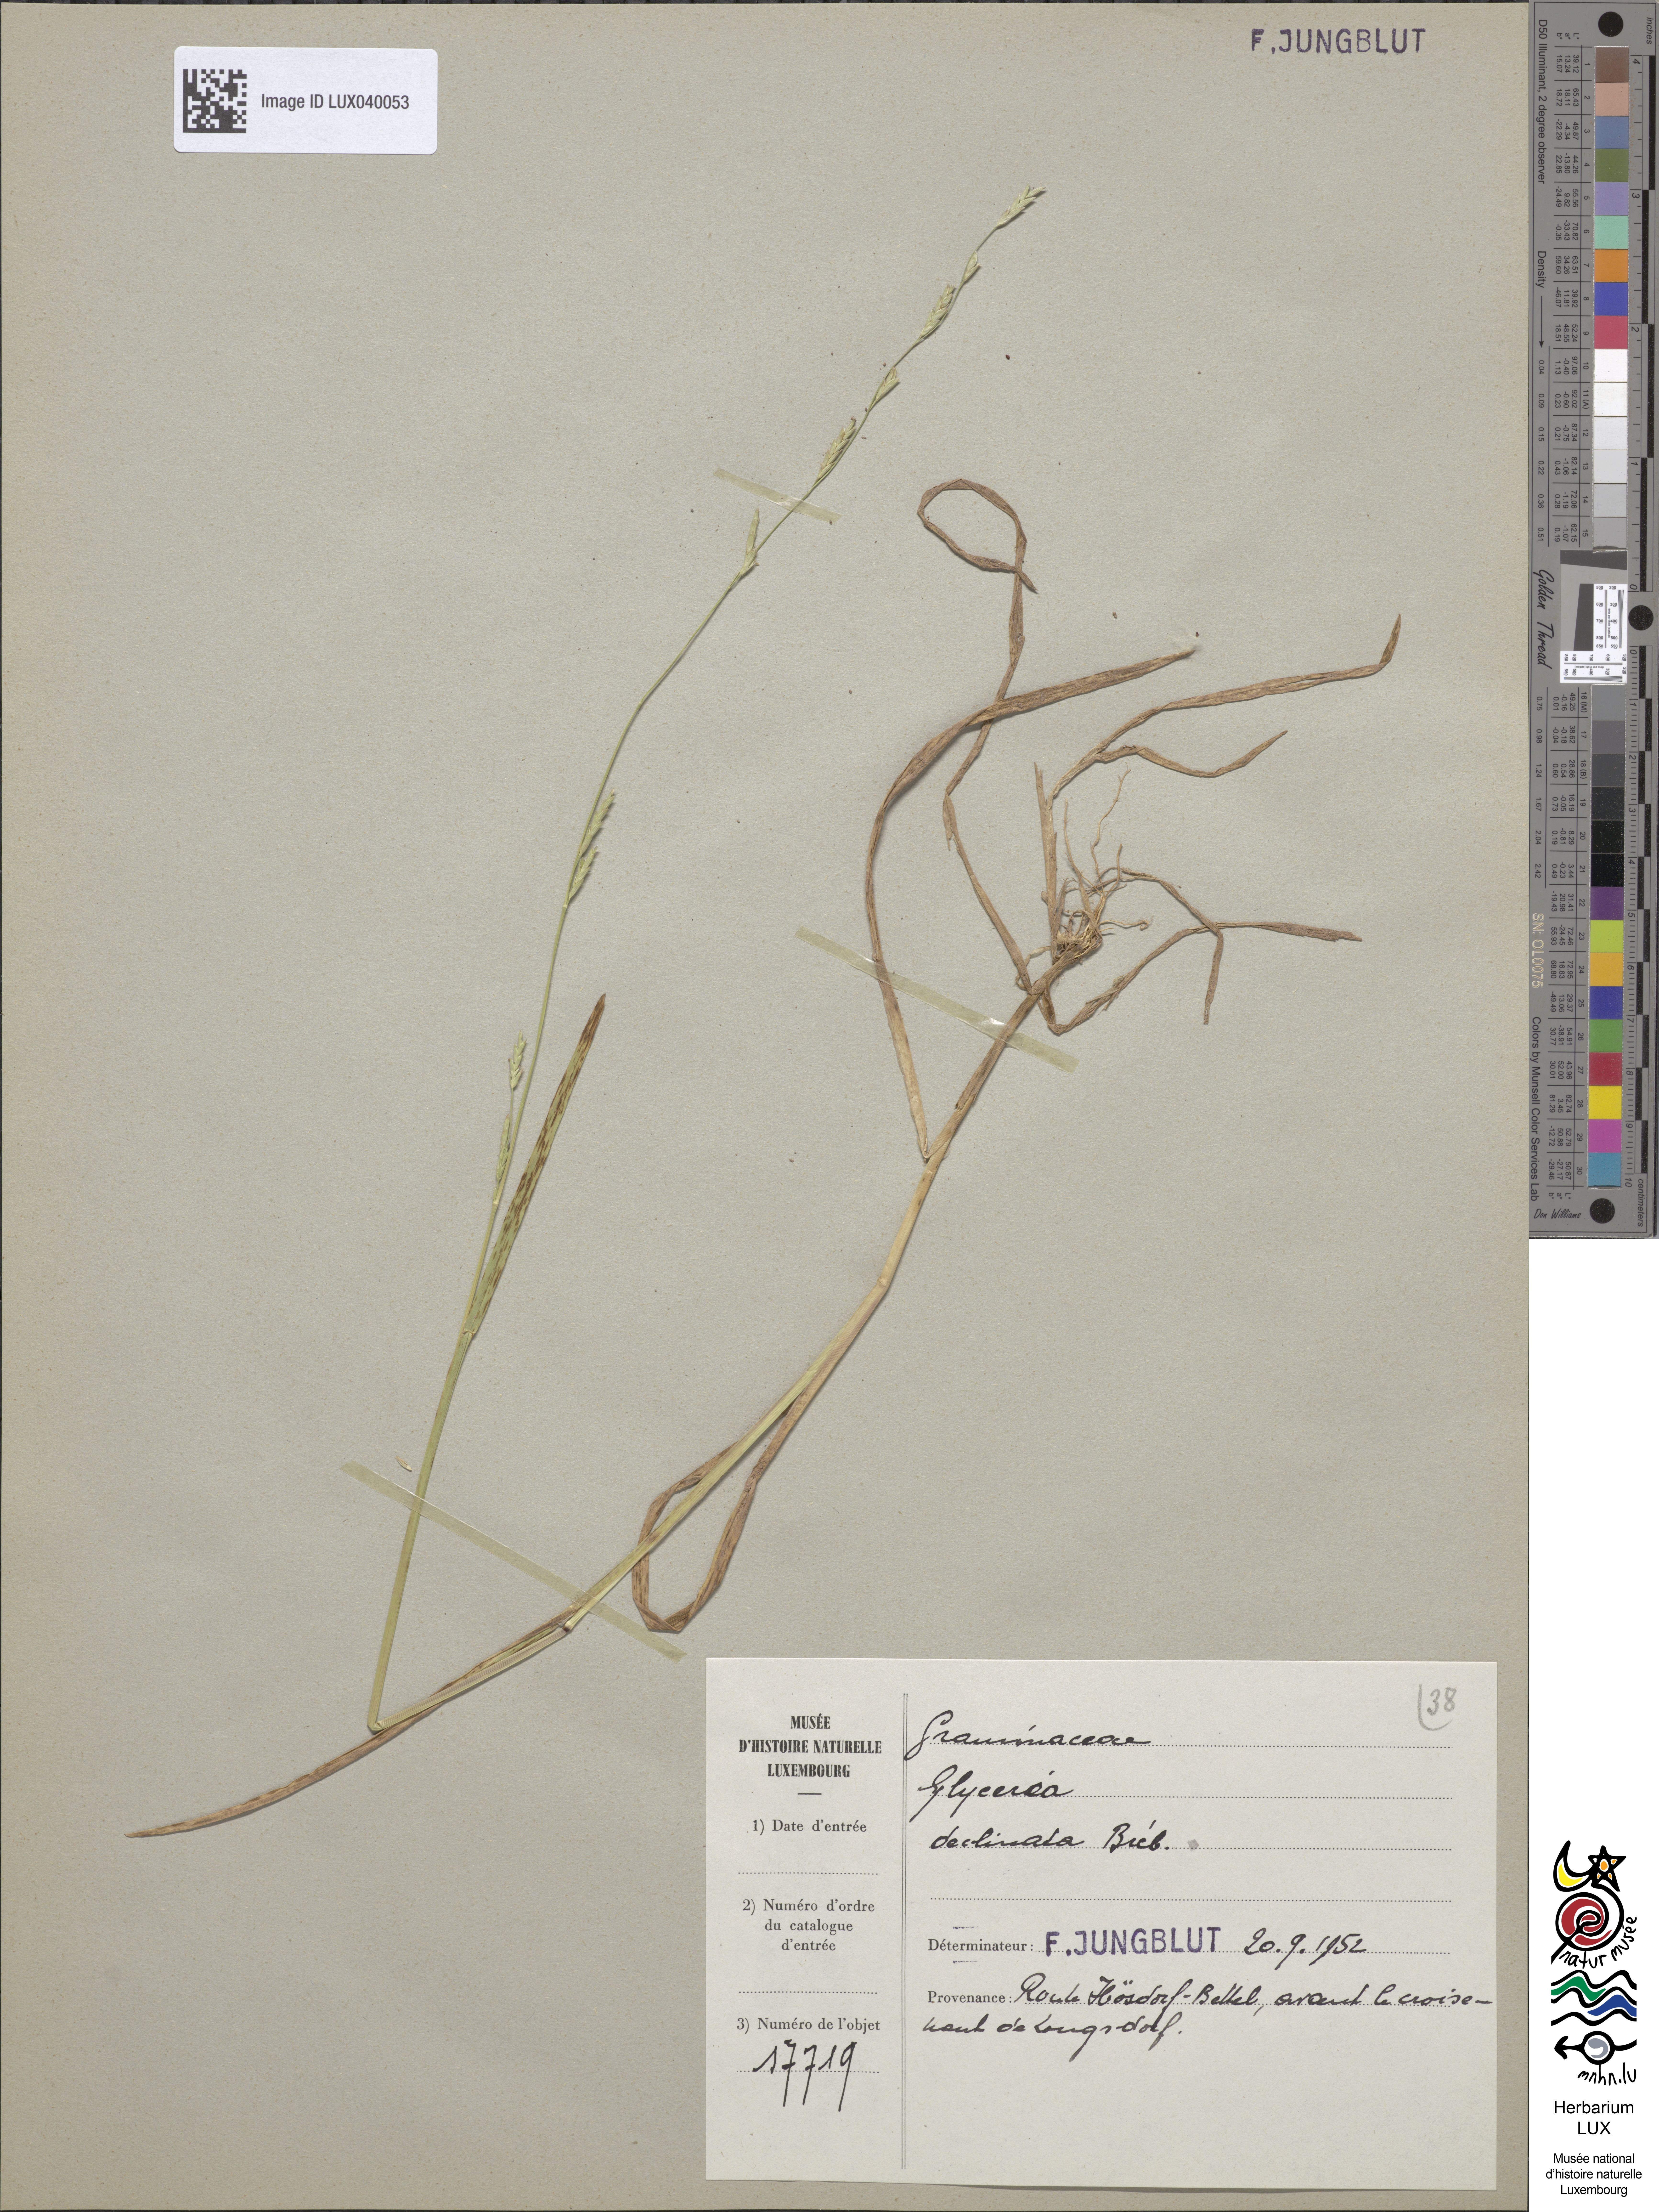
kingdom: Plantae
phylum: Tracheophyta
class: Liliopsida
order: Poales
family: Poaceae
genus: Glyceria
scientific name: Glyceria declinata
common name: Small sweet-grass
